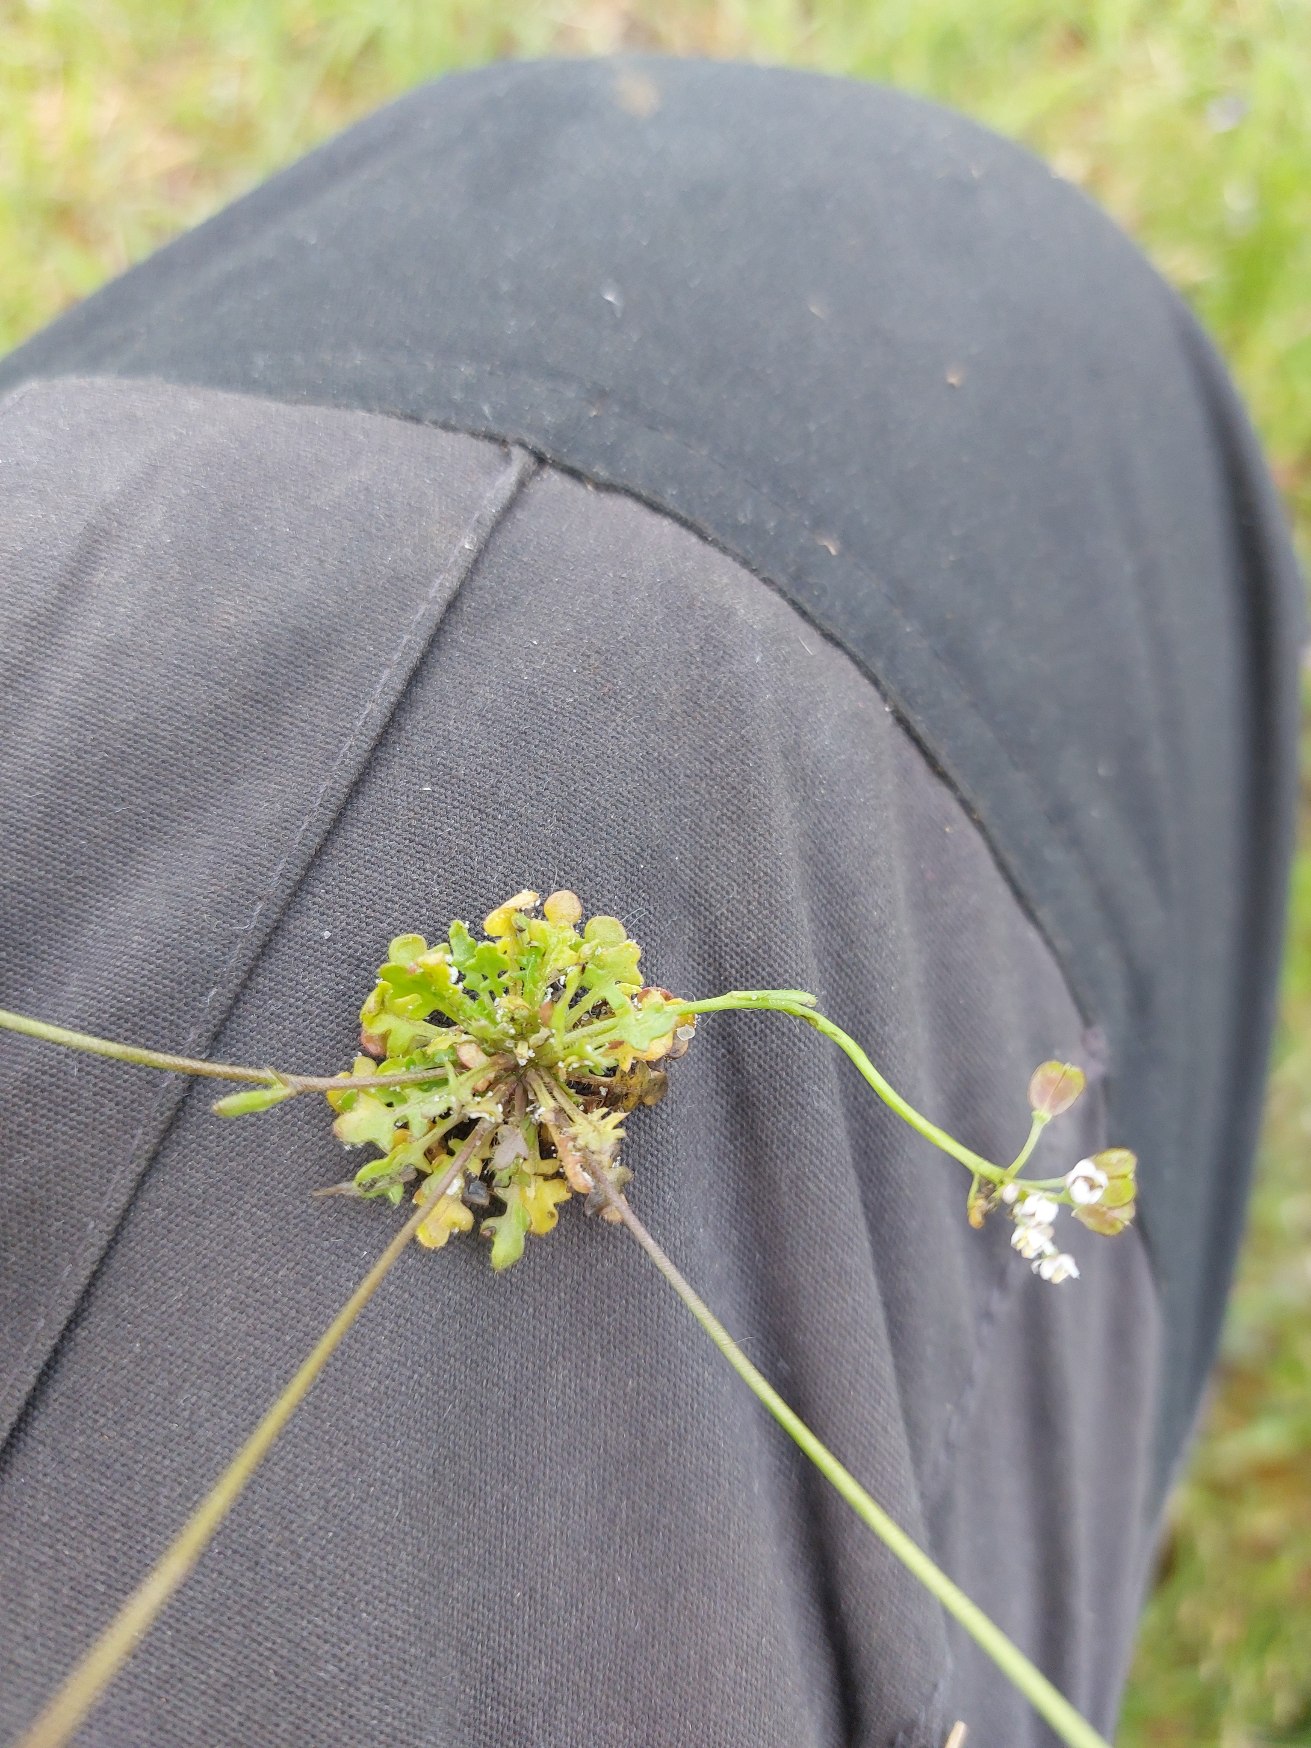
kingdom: Plantae
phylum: Tracheophyta
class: Magnoliopsida
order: Brassicales
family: Brassicaceae
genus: Teesdalia
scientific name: Teesdalia nudicaulis
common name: Flipkrave
